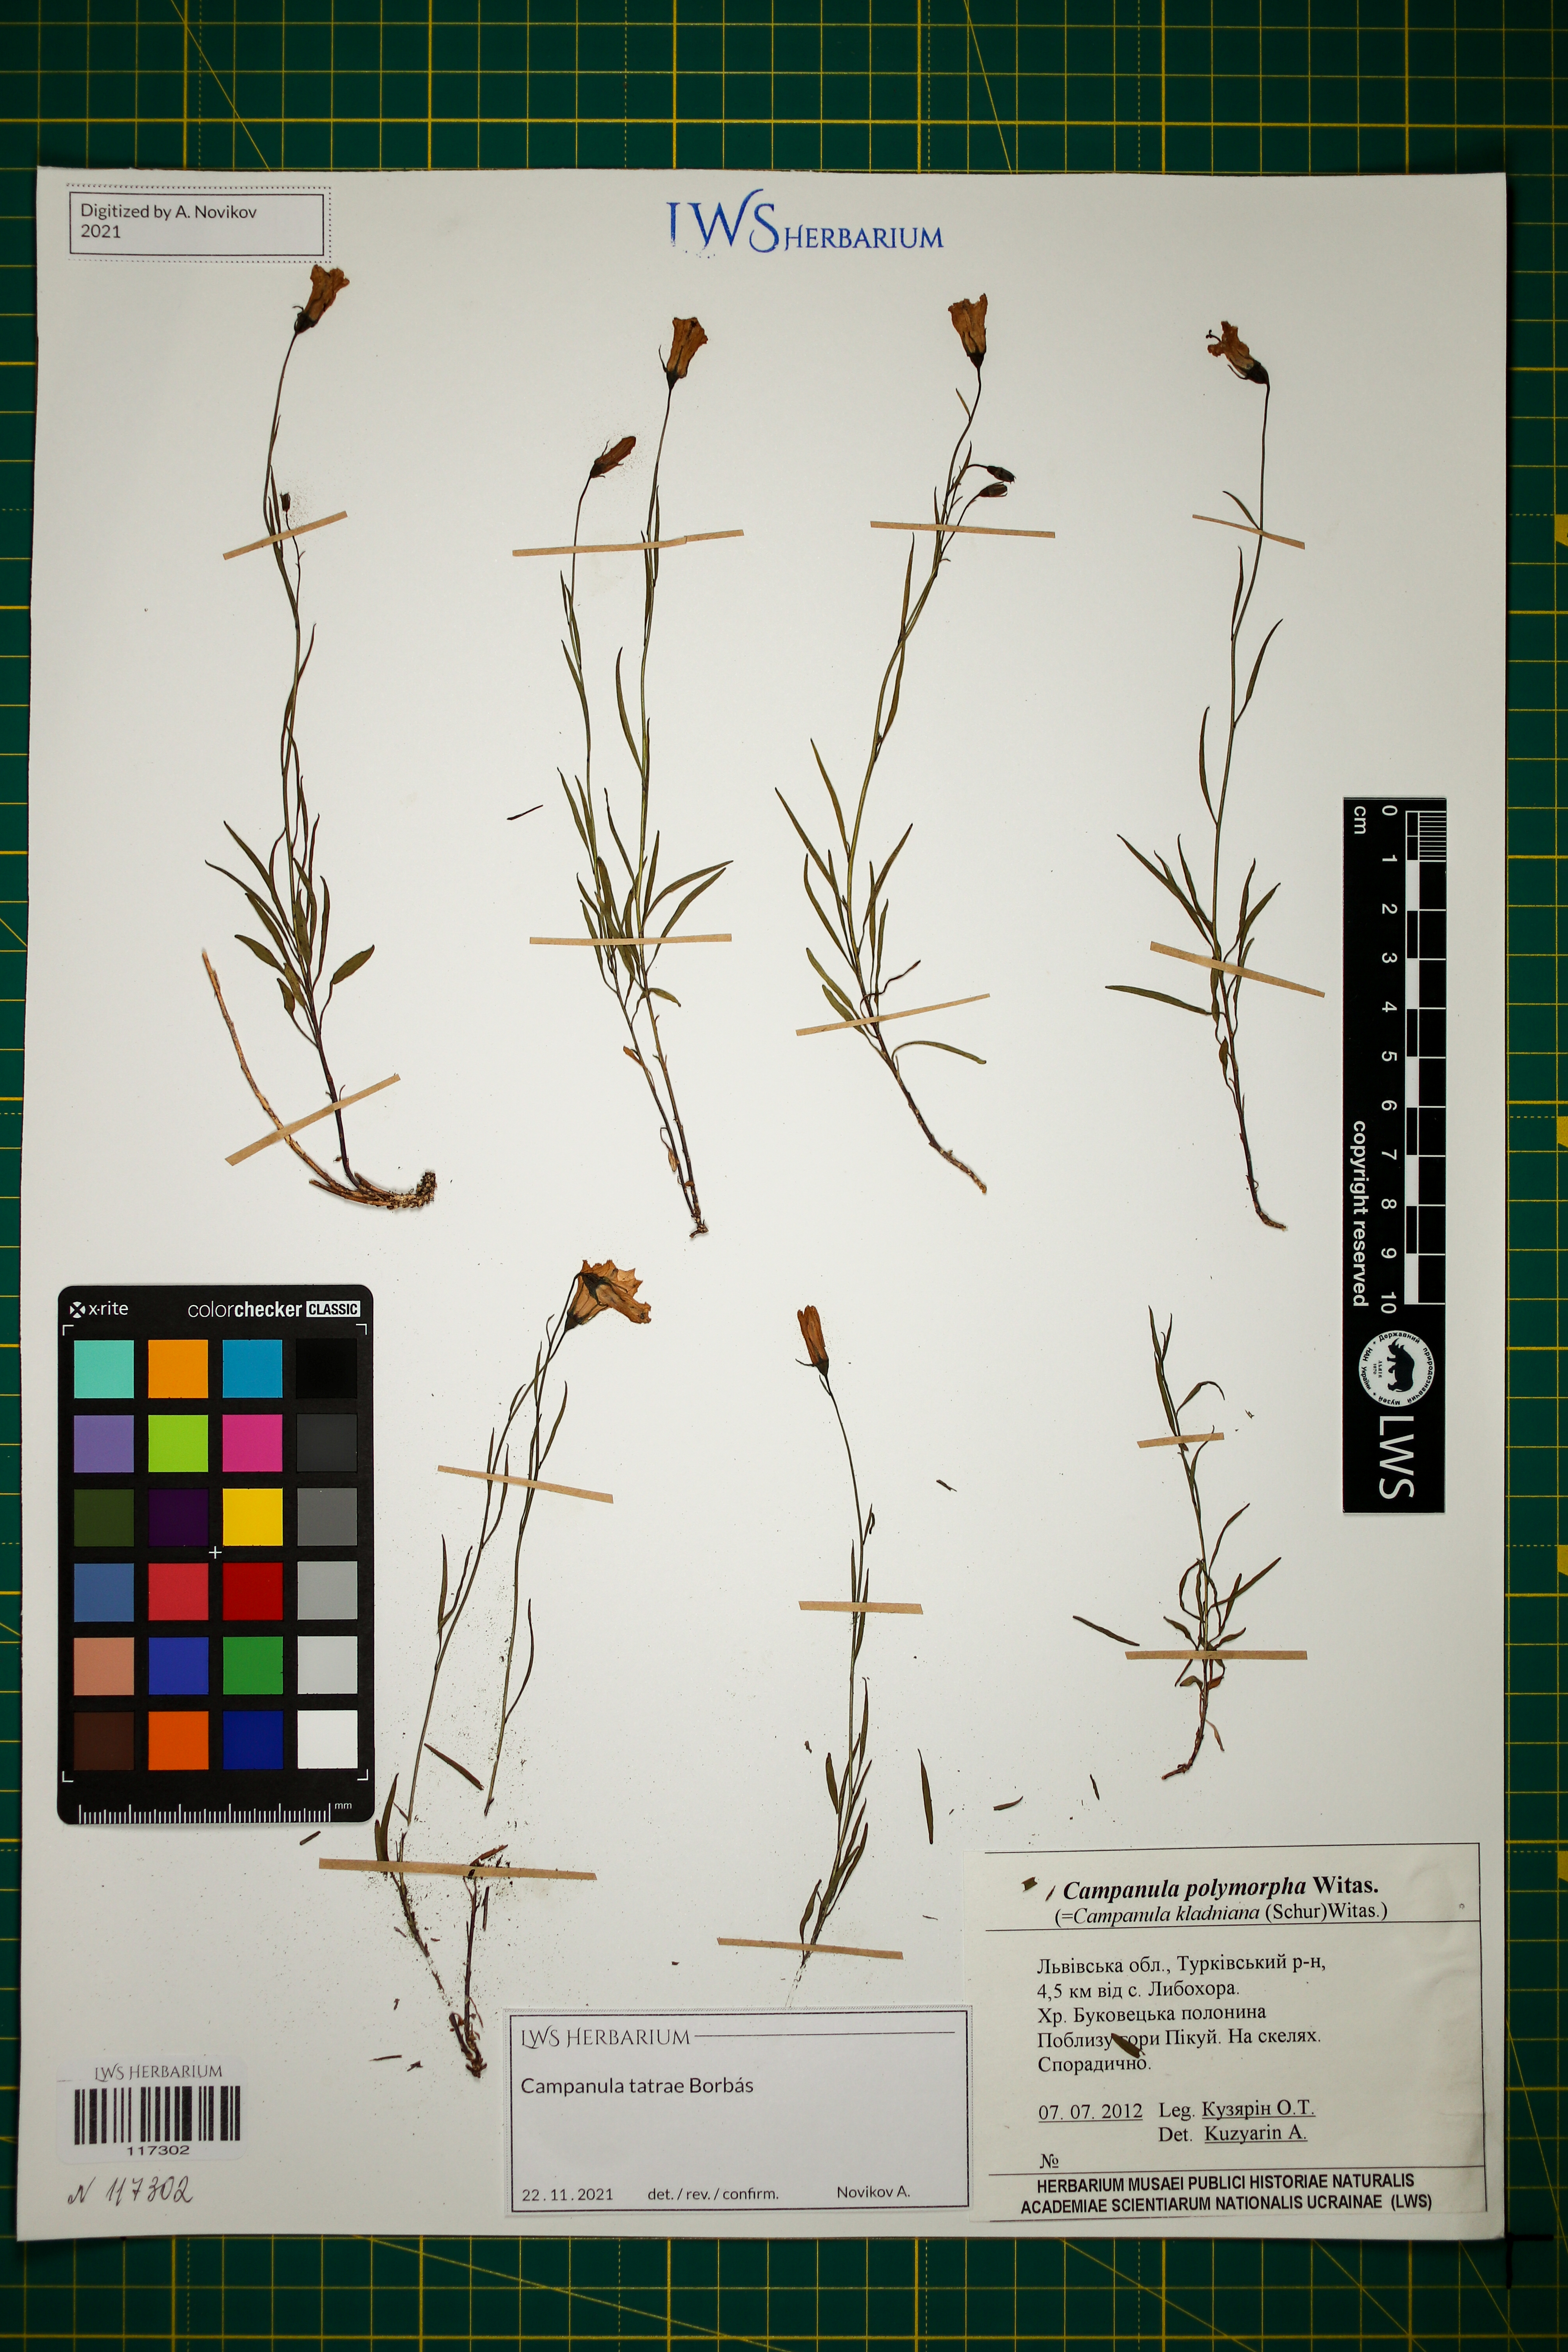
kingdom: Plantae
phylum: Tracheophyta
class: Magnoliopsida
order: Asterales
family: Campanulaceae
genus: Campanula
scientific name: Campanula kladniana
